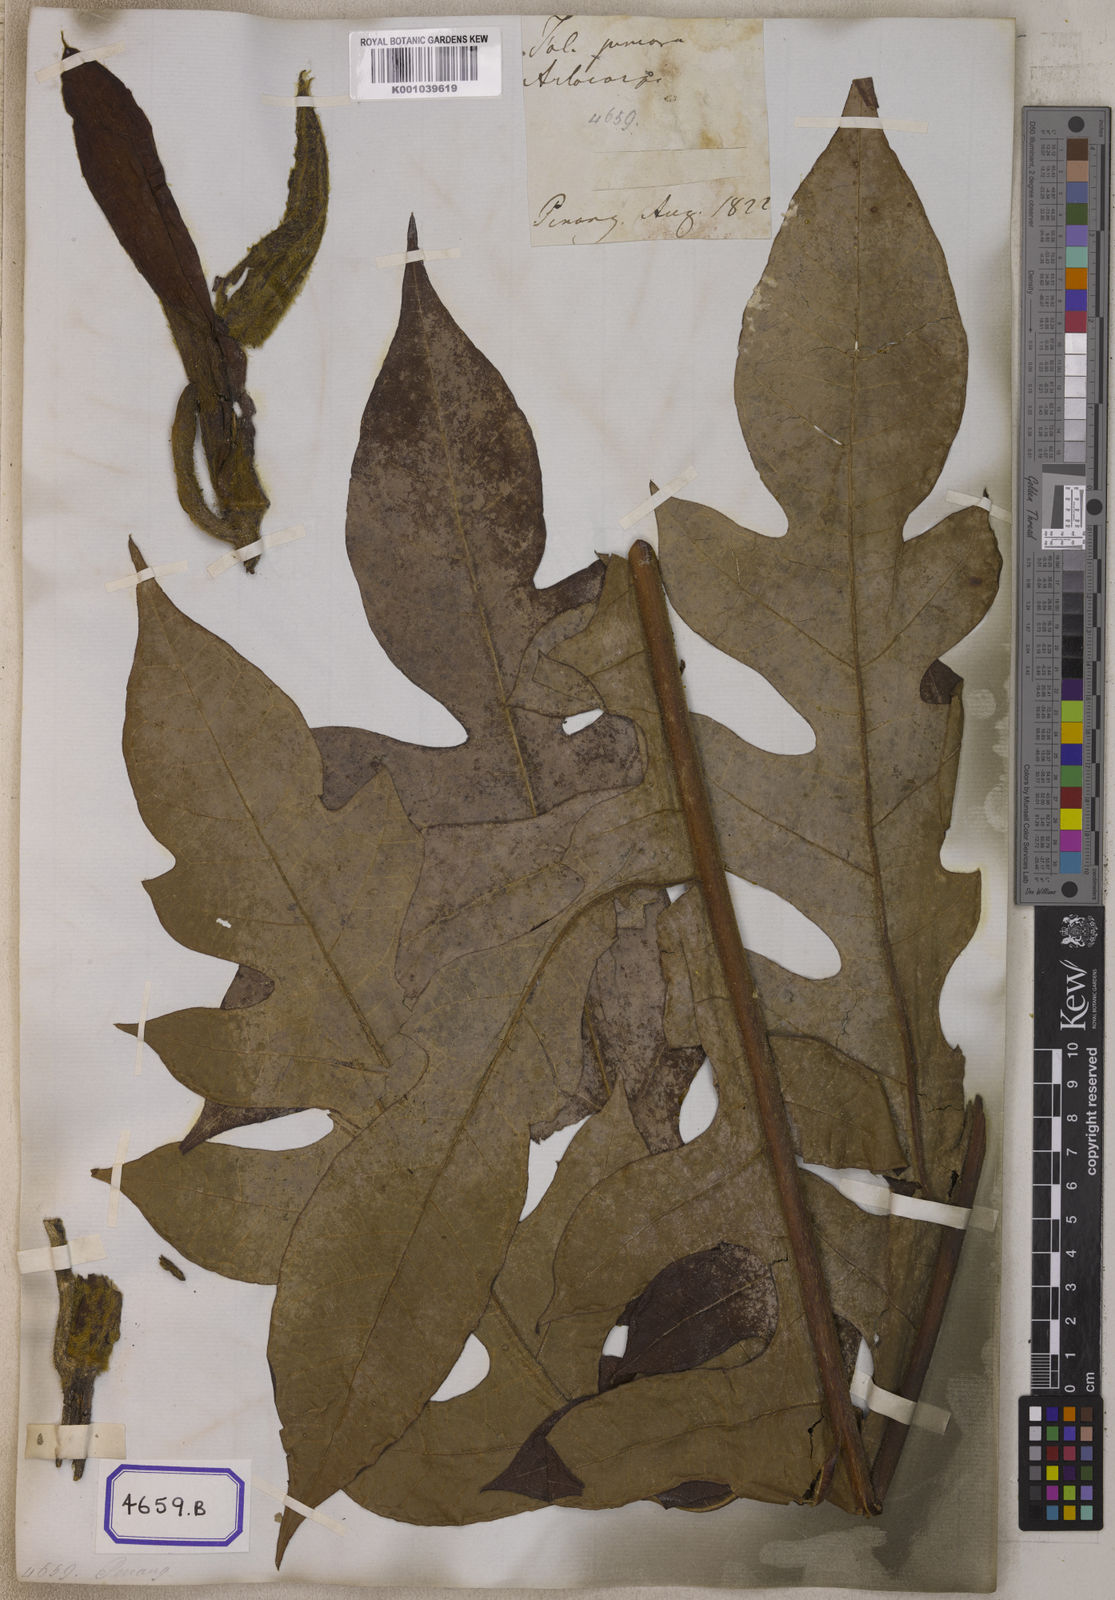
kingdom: Plantae
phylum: Tracheophyta
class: Magnoliopsida
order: Rosales
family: Moraceae
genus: Artocarpus
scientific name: Artocarpus
